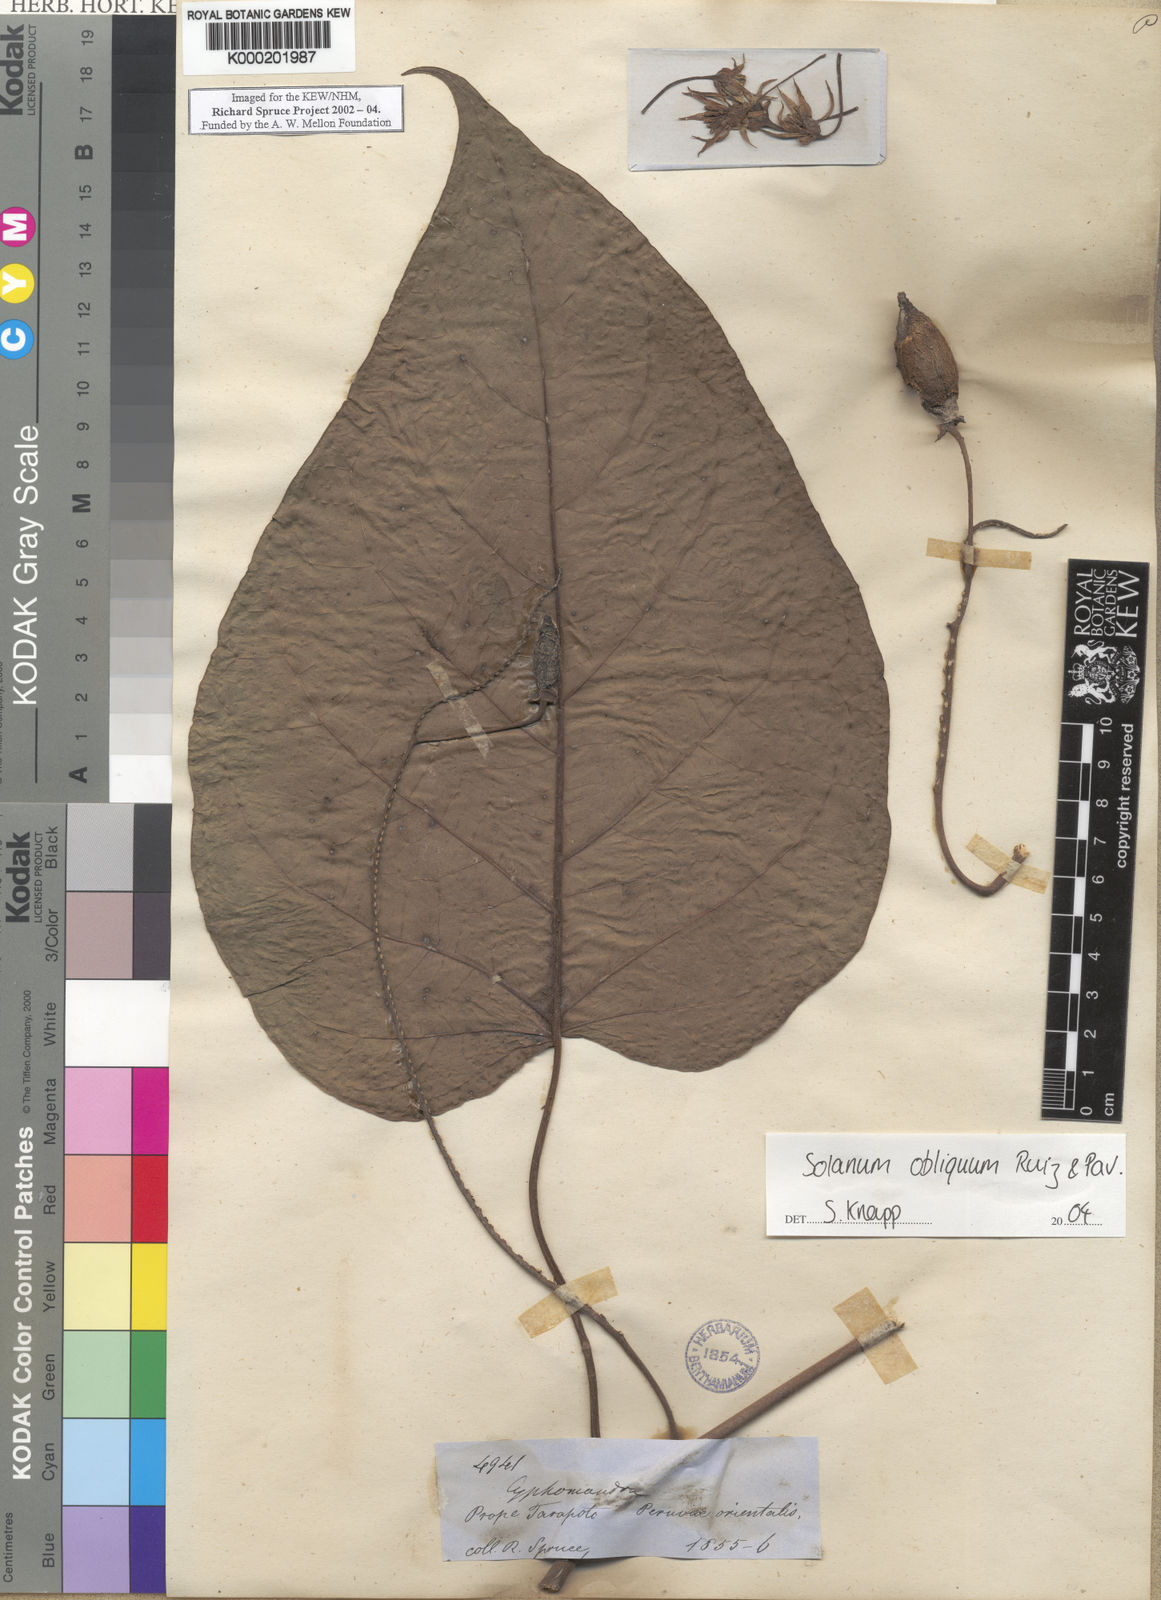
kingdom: Plantae
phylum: Tracheophyta
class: Magnoliopsida
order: Solanales
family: Solanaceae
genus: Solanum
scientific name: Solanum obliquum
